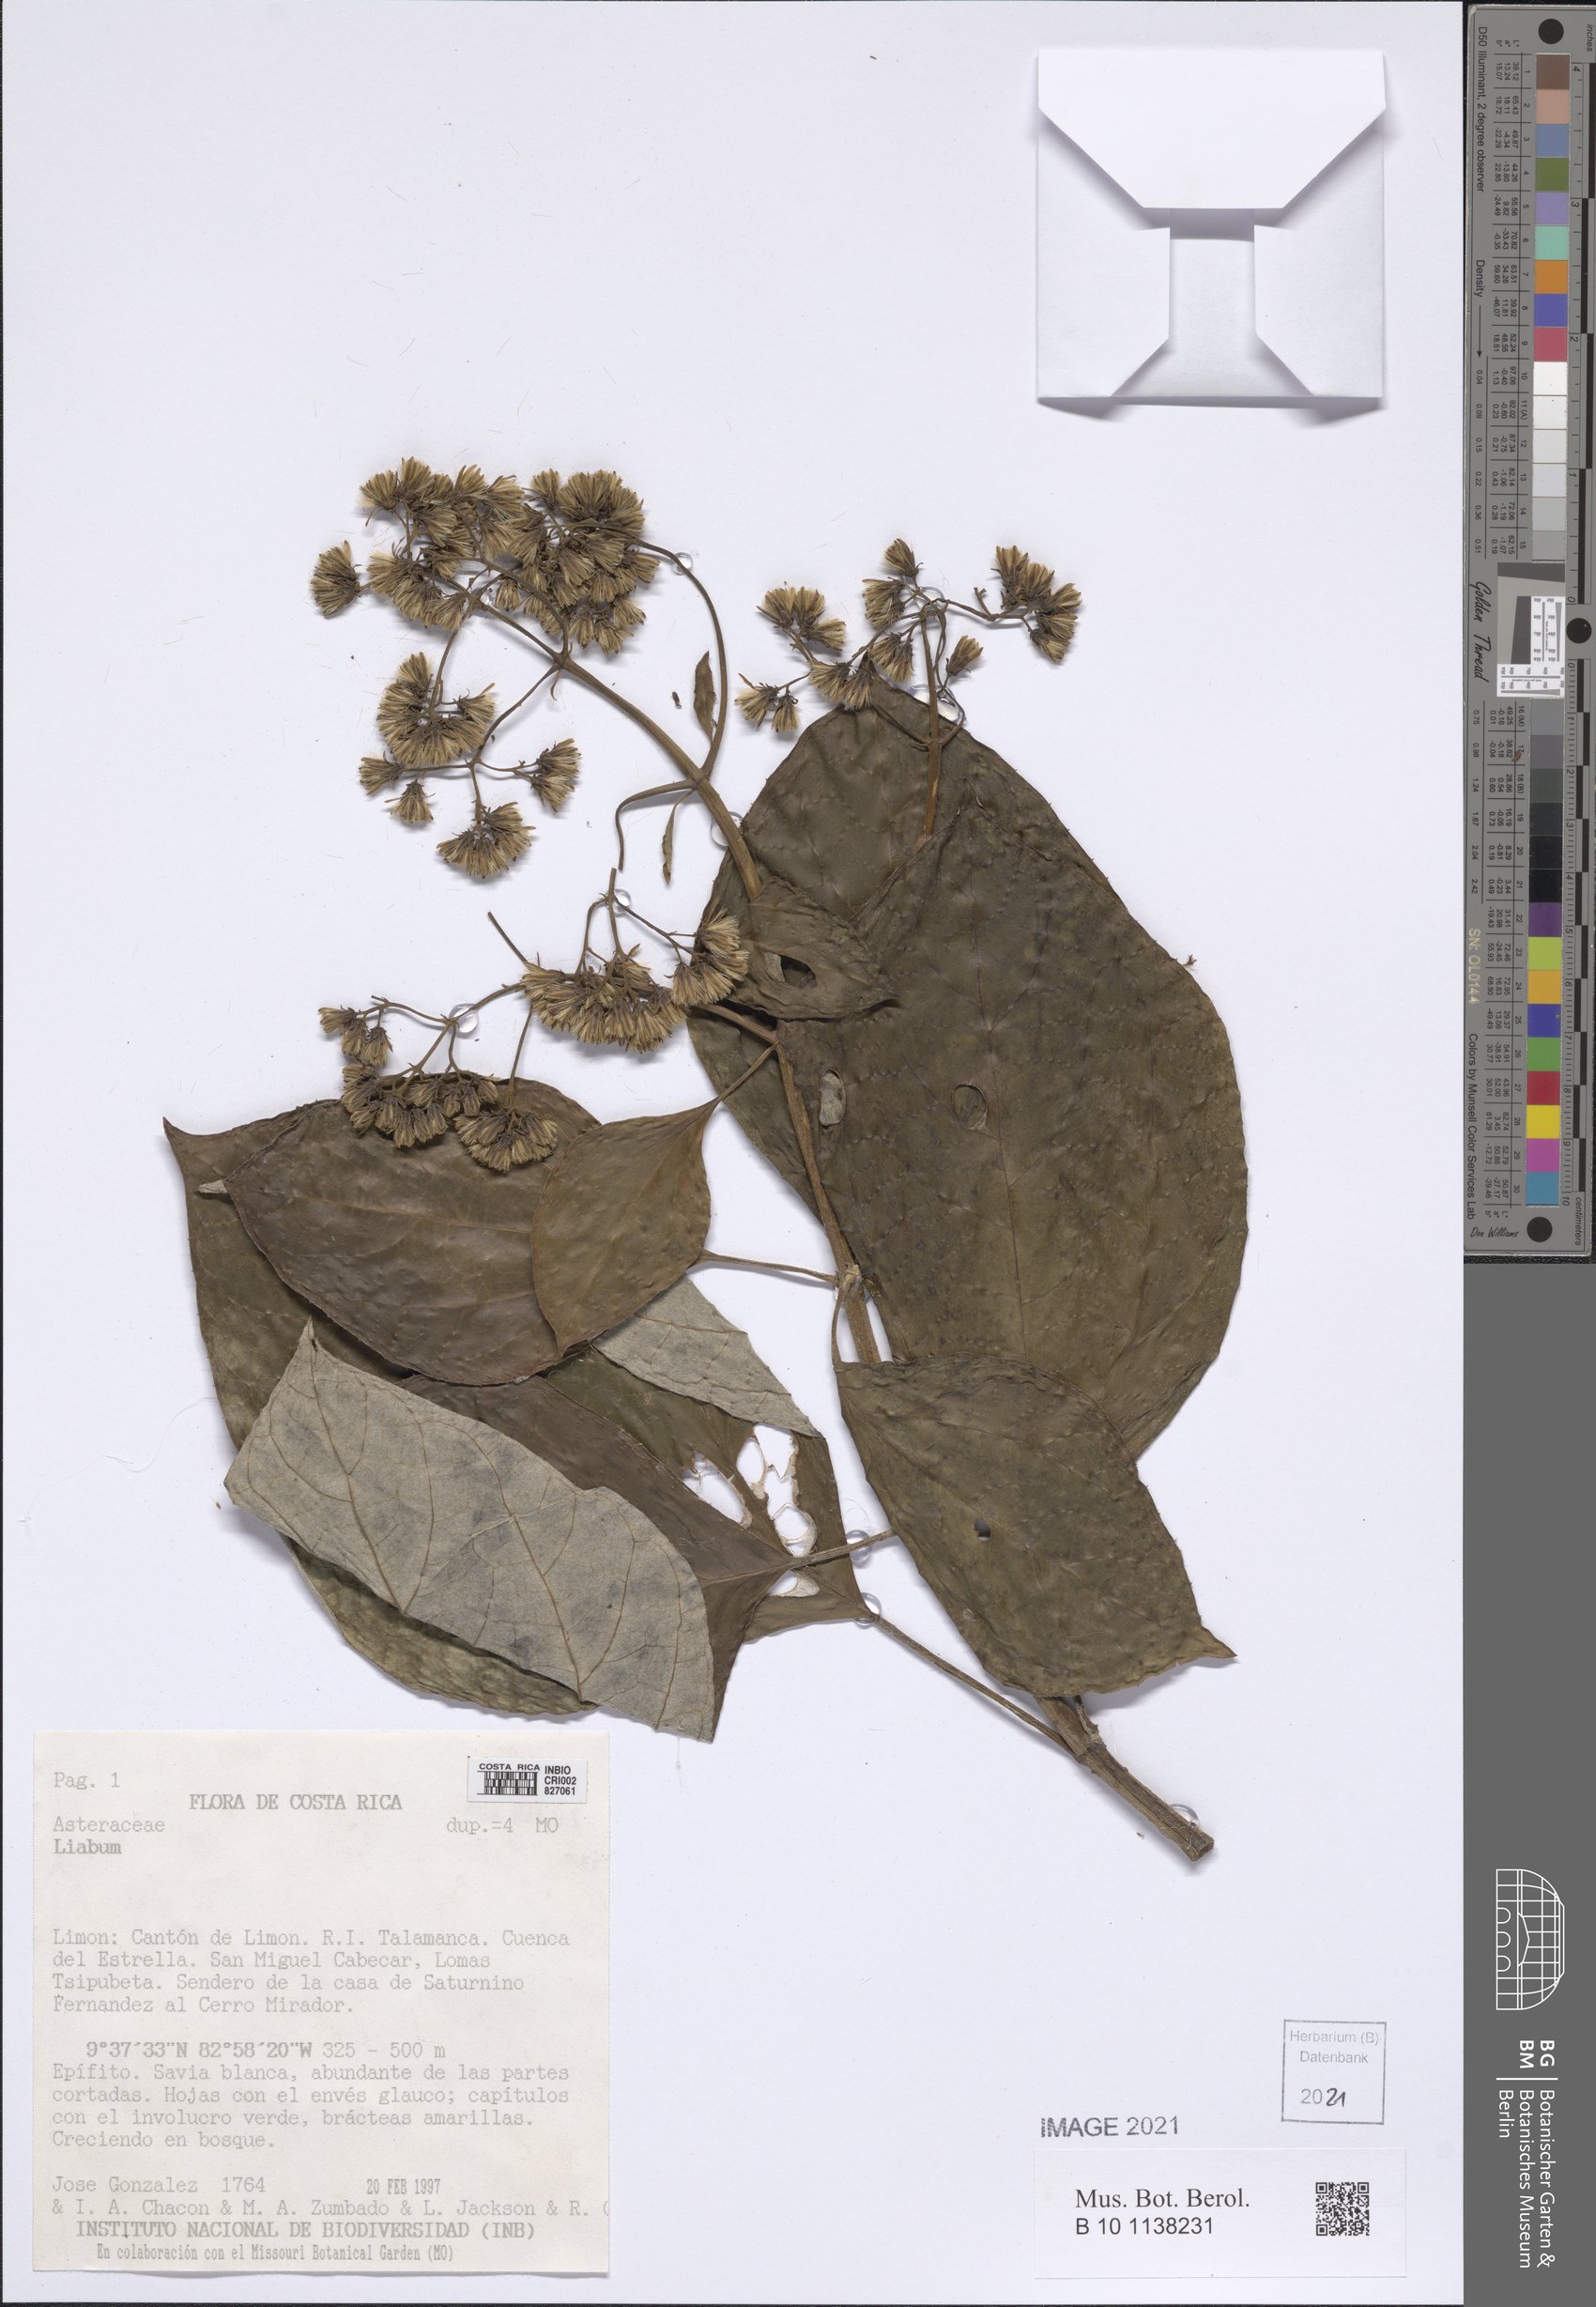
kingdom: Plantae
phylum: Tracheophyta
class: Magnoliopsida
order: Asterales
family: Asteraceae
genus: Liabum
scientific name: Liabum
